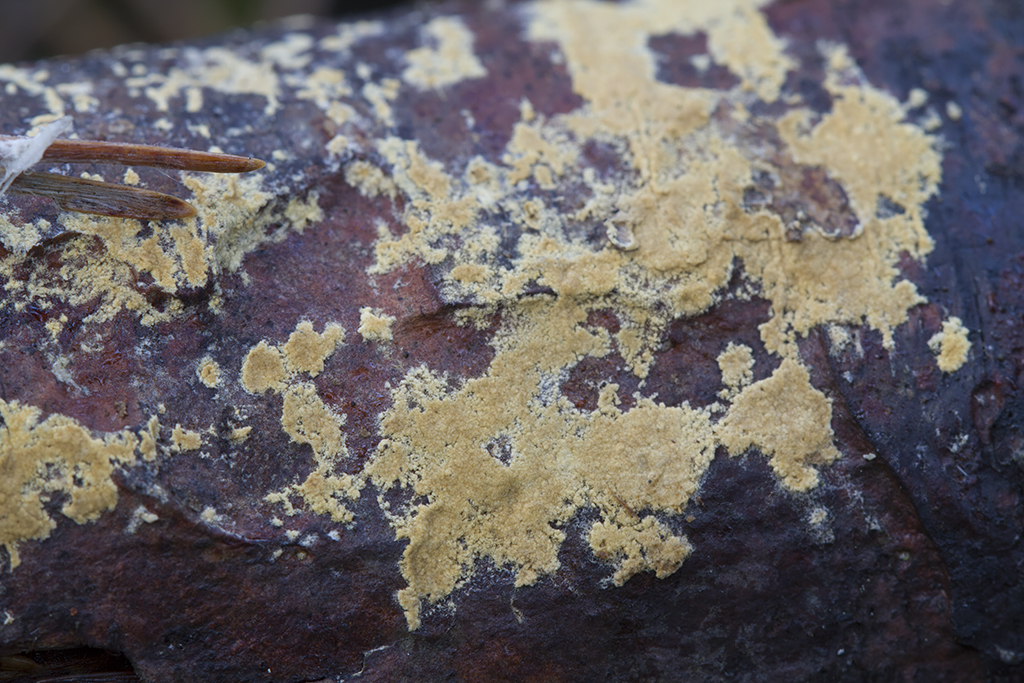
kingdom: Fungi
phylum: Basidiomycota
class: Agaricomycetes
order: Boletales
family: Coniophoraceae
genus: Coniophora
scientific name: Coniophora arida
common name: tynd tømmersvamp
